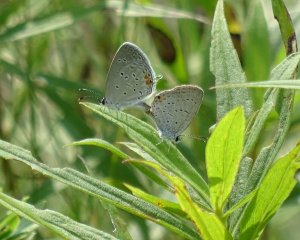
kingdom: Animalia
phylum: Arthropoda
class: Insecta
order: Lepidoptera
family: Lycaenidae
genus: Elkalyce
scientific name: Elkalyce comyntas
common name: Eastern Tailed-Blue
